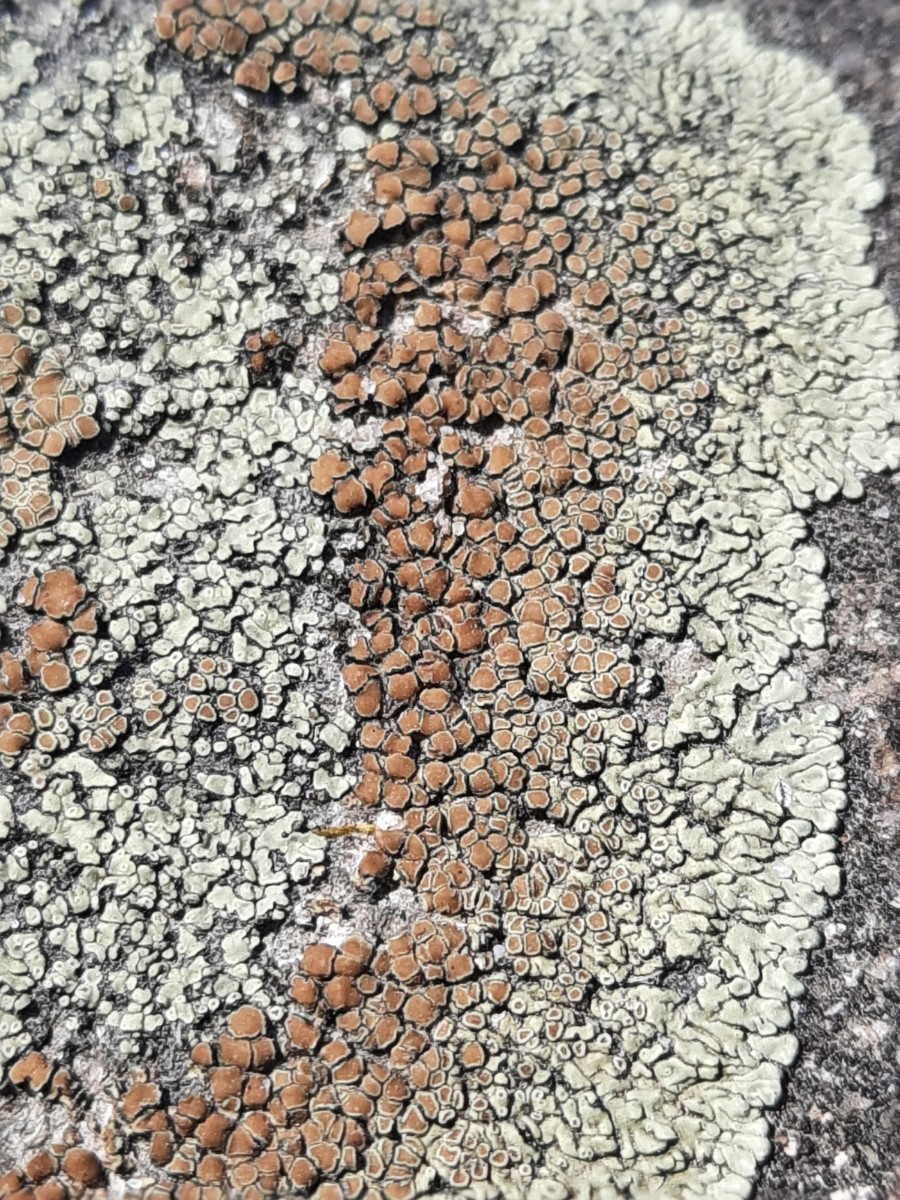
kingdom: Fungi
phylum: Ascomycota
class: Lecanoromycetes
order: Lecanorales
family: Lecanoraceae
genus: Protoparmeliopsis
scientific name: Protoparmeliopsis muralis
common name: randfliget kantskivelav
